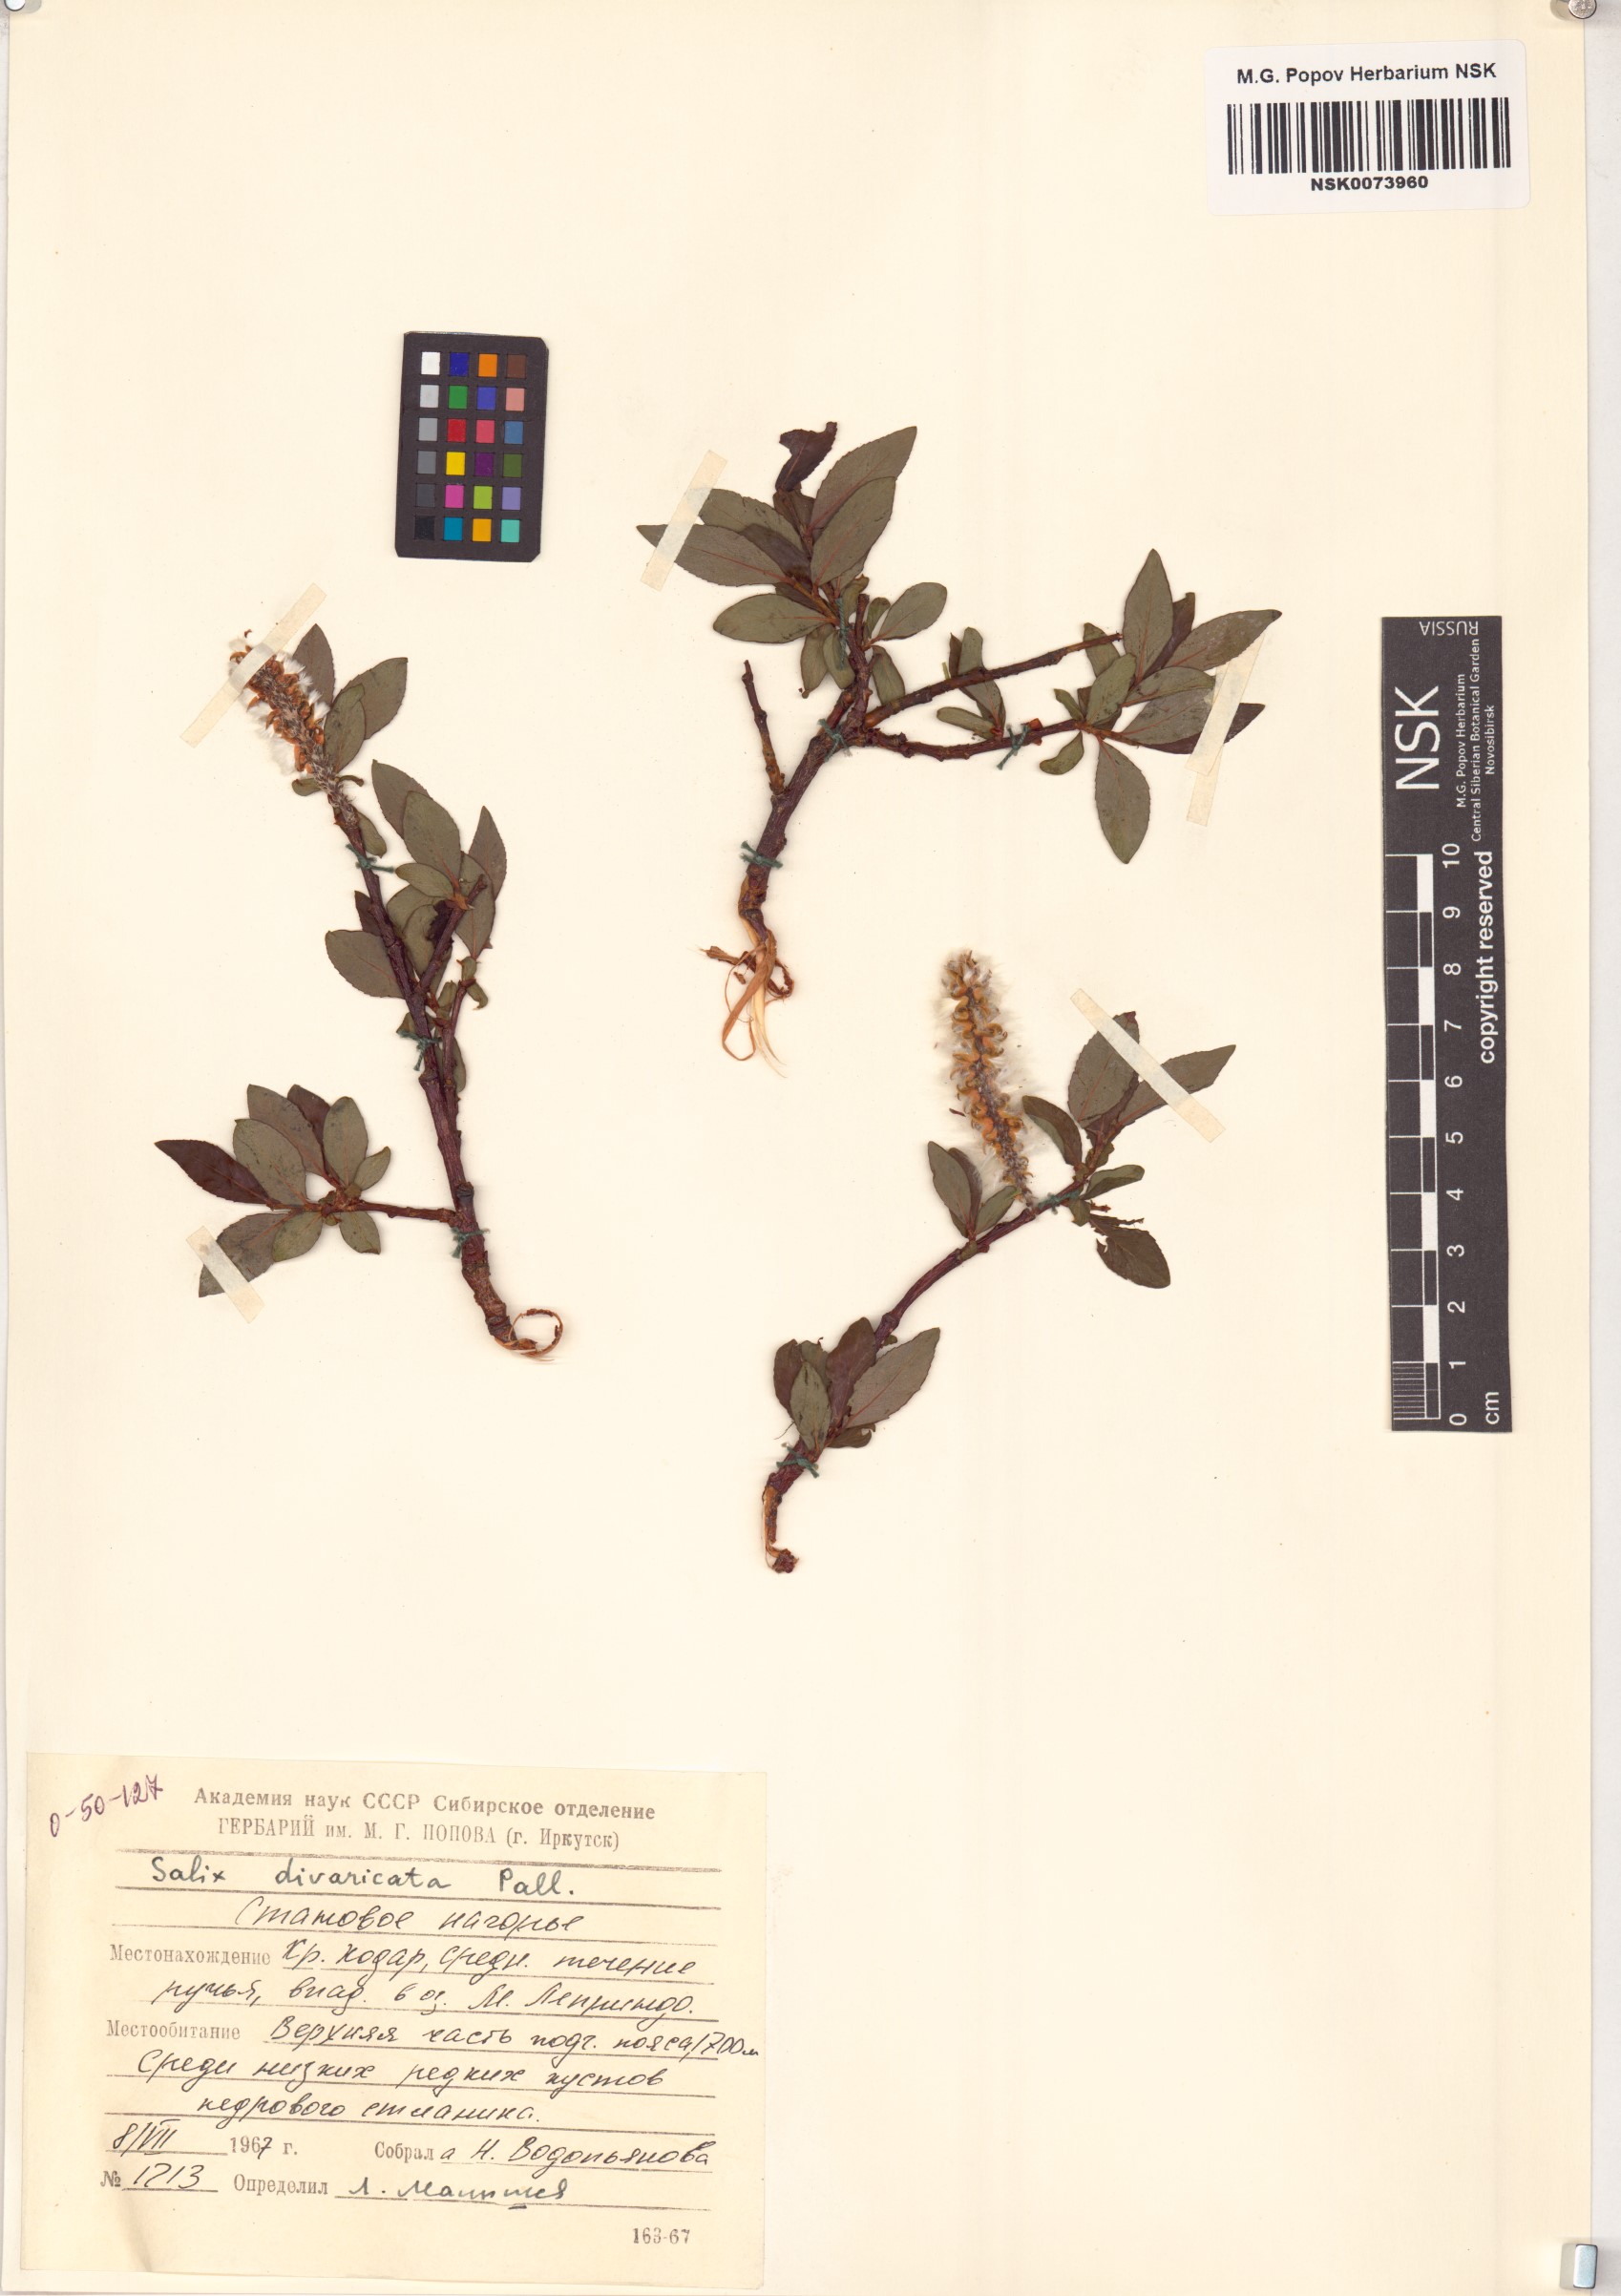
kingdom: Plantae
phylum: Tracheophyta
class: Magnoliopsida
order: Malpighiales
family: Salicaceae
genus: Salix
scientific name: Salix divaricata
